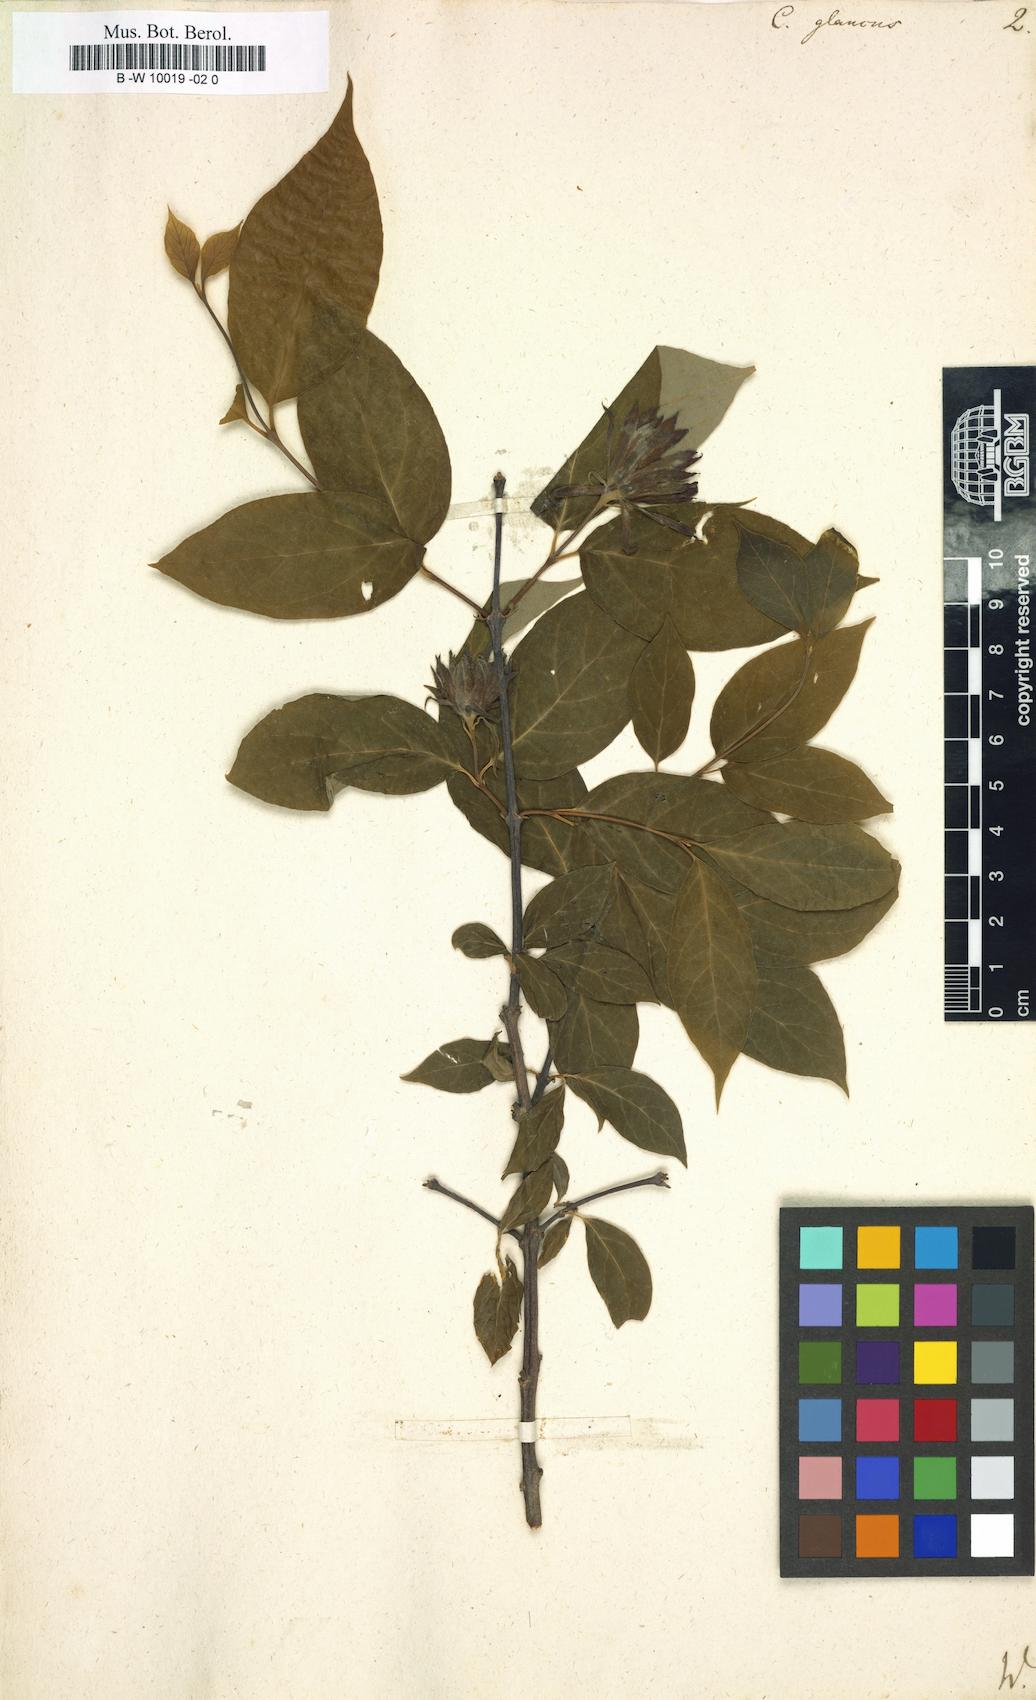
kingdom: Plantae
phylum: Tracheophyta
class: Magnoliopsida
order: Laurales
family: Calycanthaceae
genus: Calycanthus
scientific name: Calycanthus floridus
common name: Carolina-allspice
